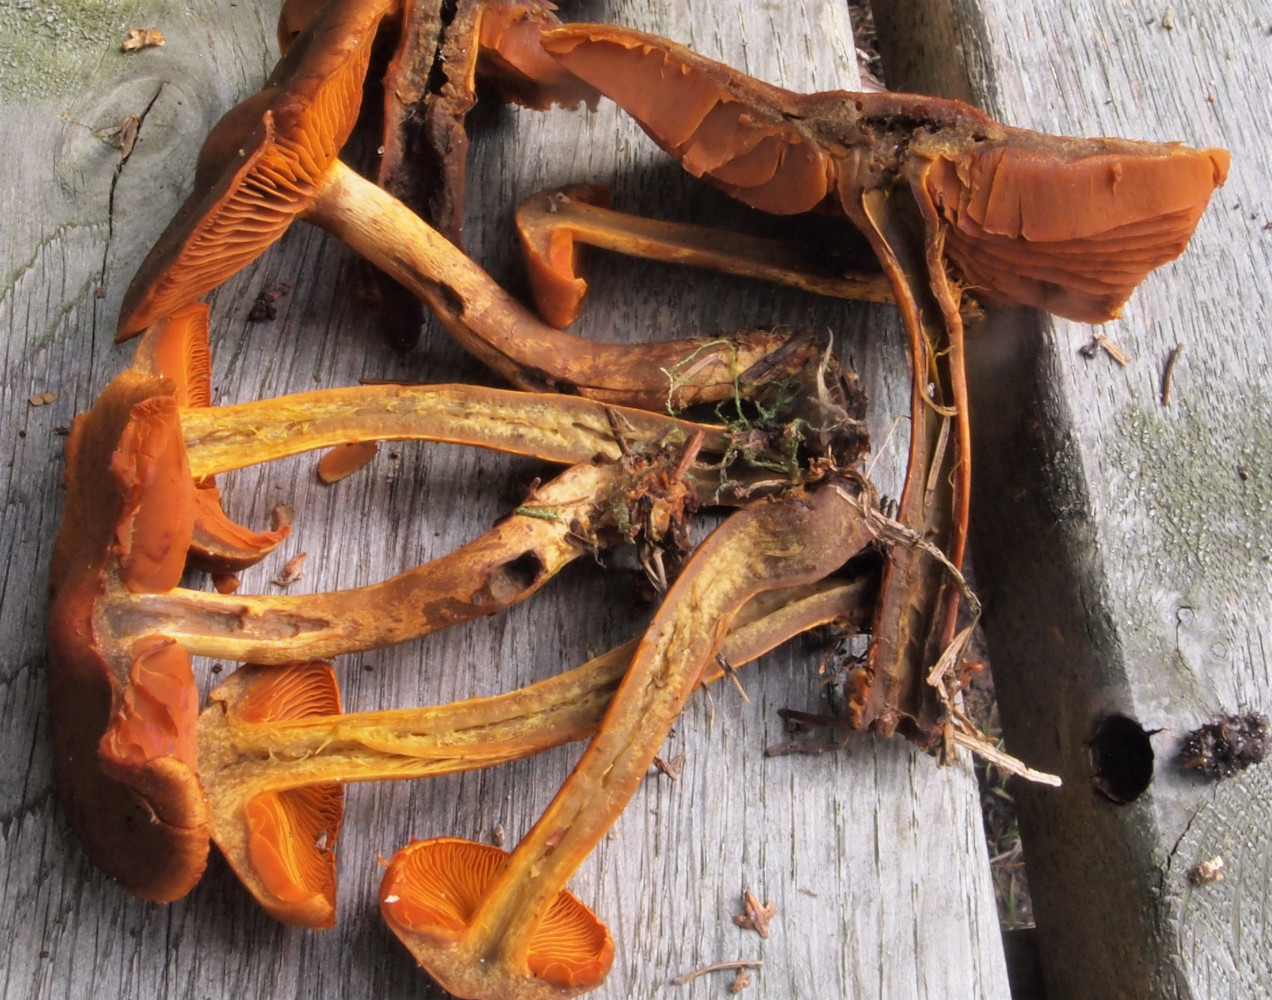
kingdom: Fungi
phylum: Basidiomycota
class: Agaricomycetes
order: Agaricales
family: Cortinariaceae
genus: Cortinarius
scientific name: Cortinarius malicorius
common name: grønkødet slørhat
